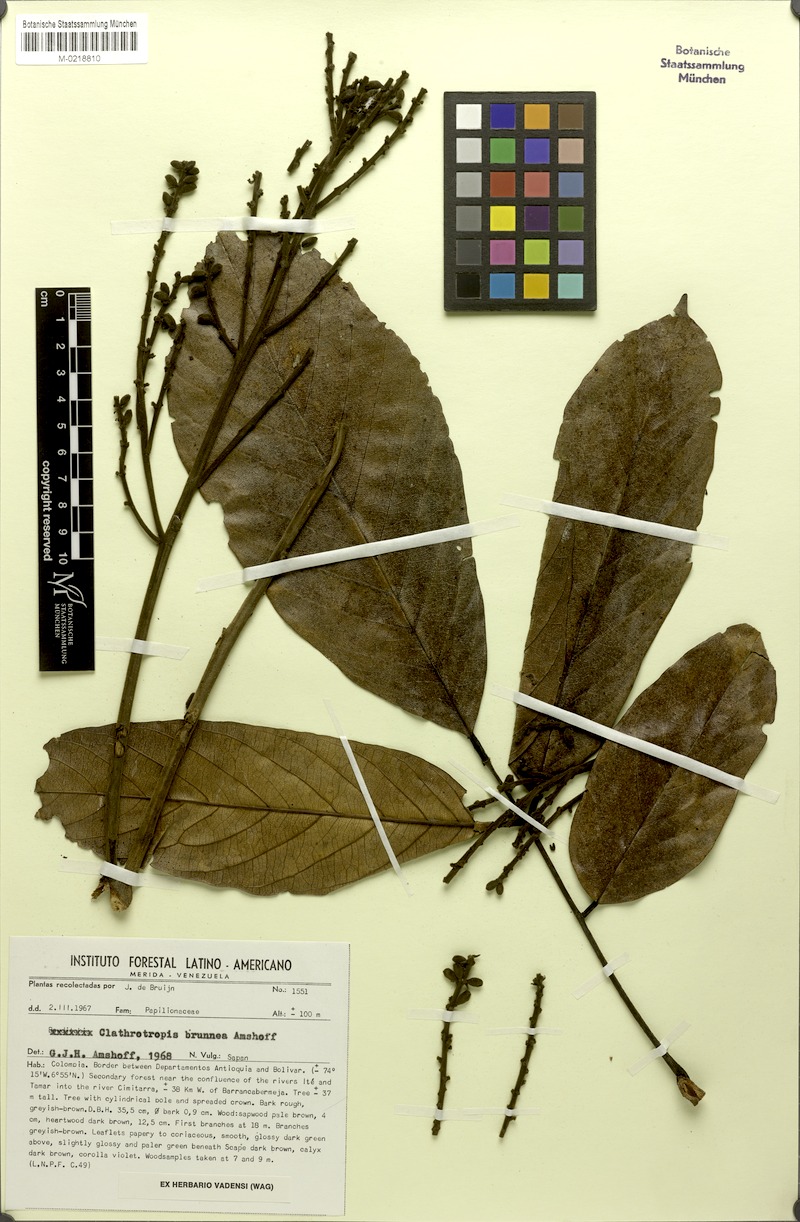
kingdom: Plantae
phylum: Tracheophyta
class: Magnoliopsida
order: Fabales
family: Fabaceae
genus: Clathrotropis
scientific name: Clathrotropis brunnea
